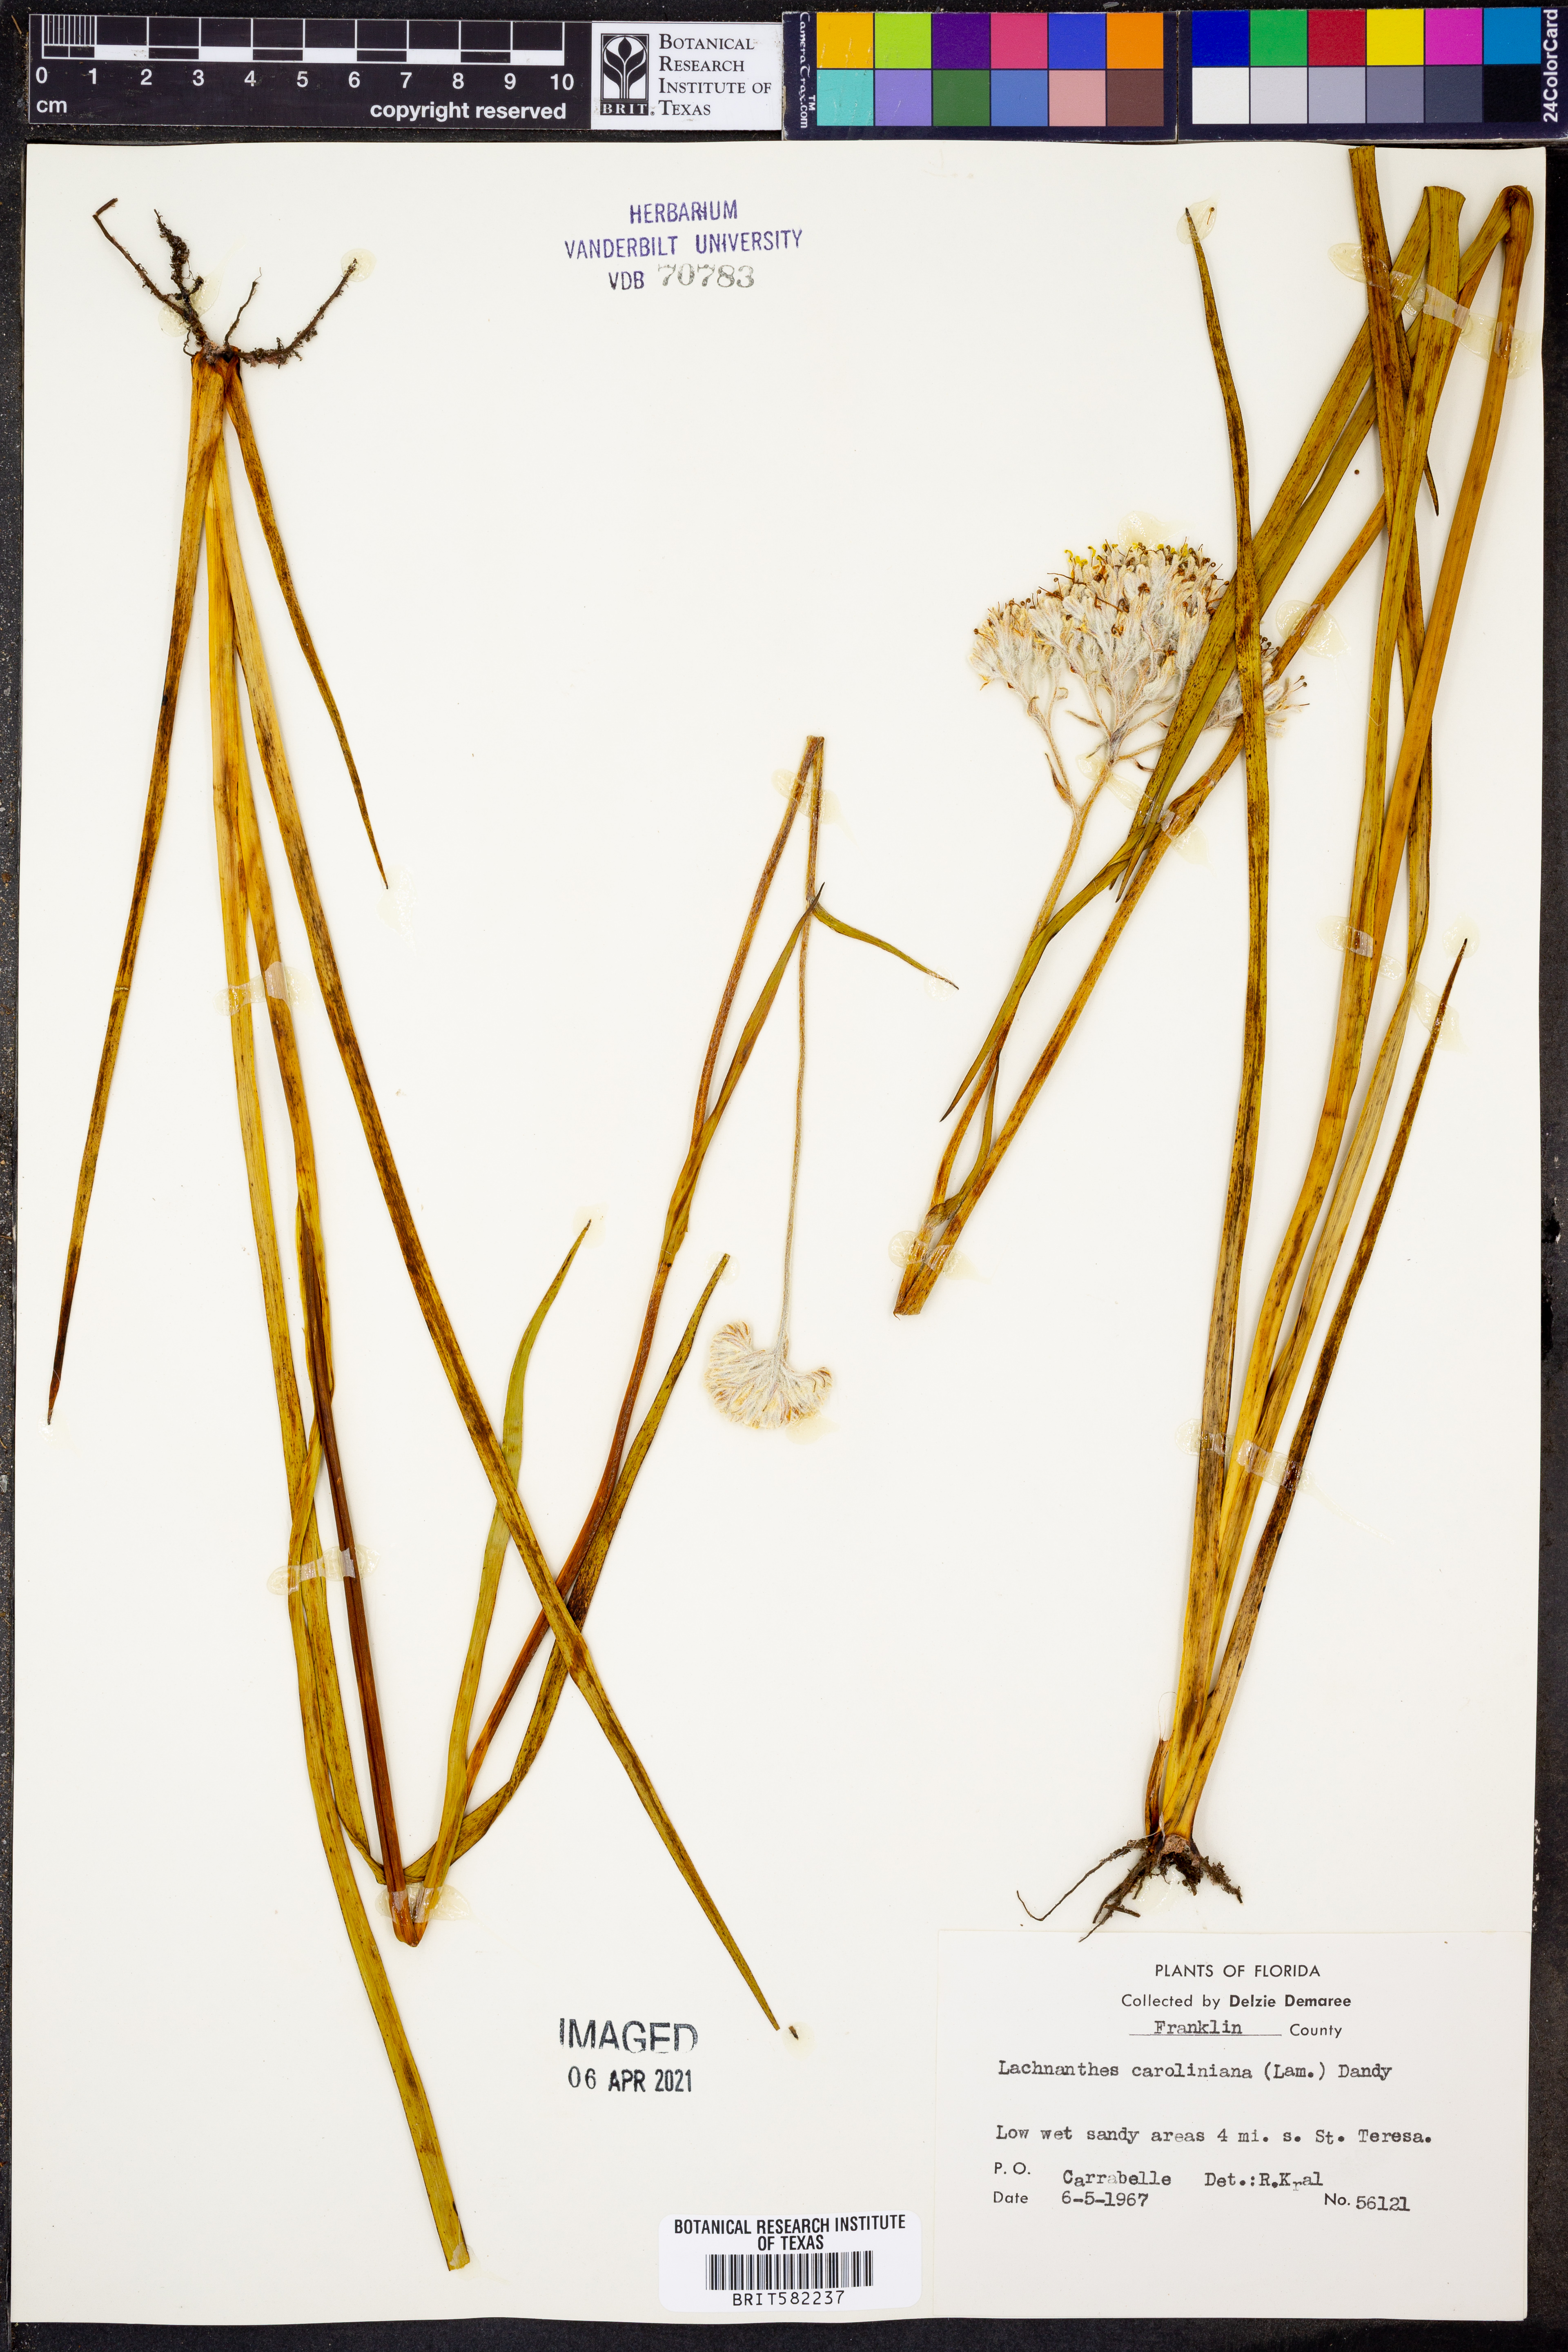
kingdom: Plantae
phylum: Tracheophyta
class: Liliopsida
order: Commelinales
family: Haemodoraceae
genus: Lachnanthes
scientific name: Lachnanthes caroliniana
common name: Carolina redroot
